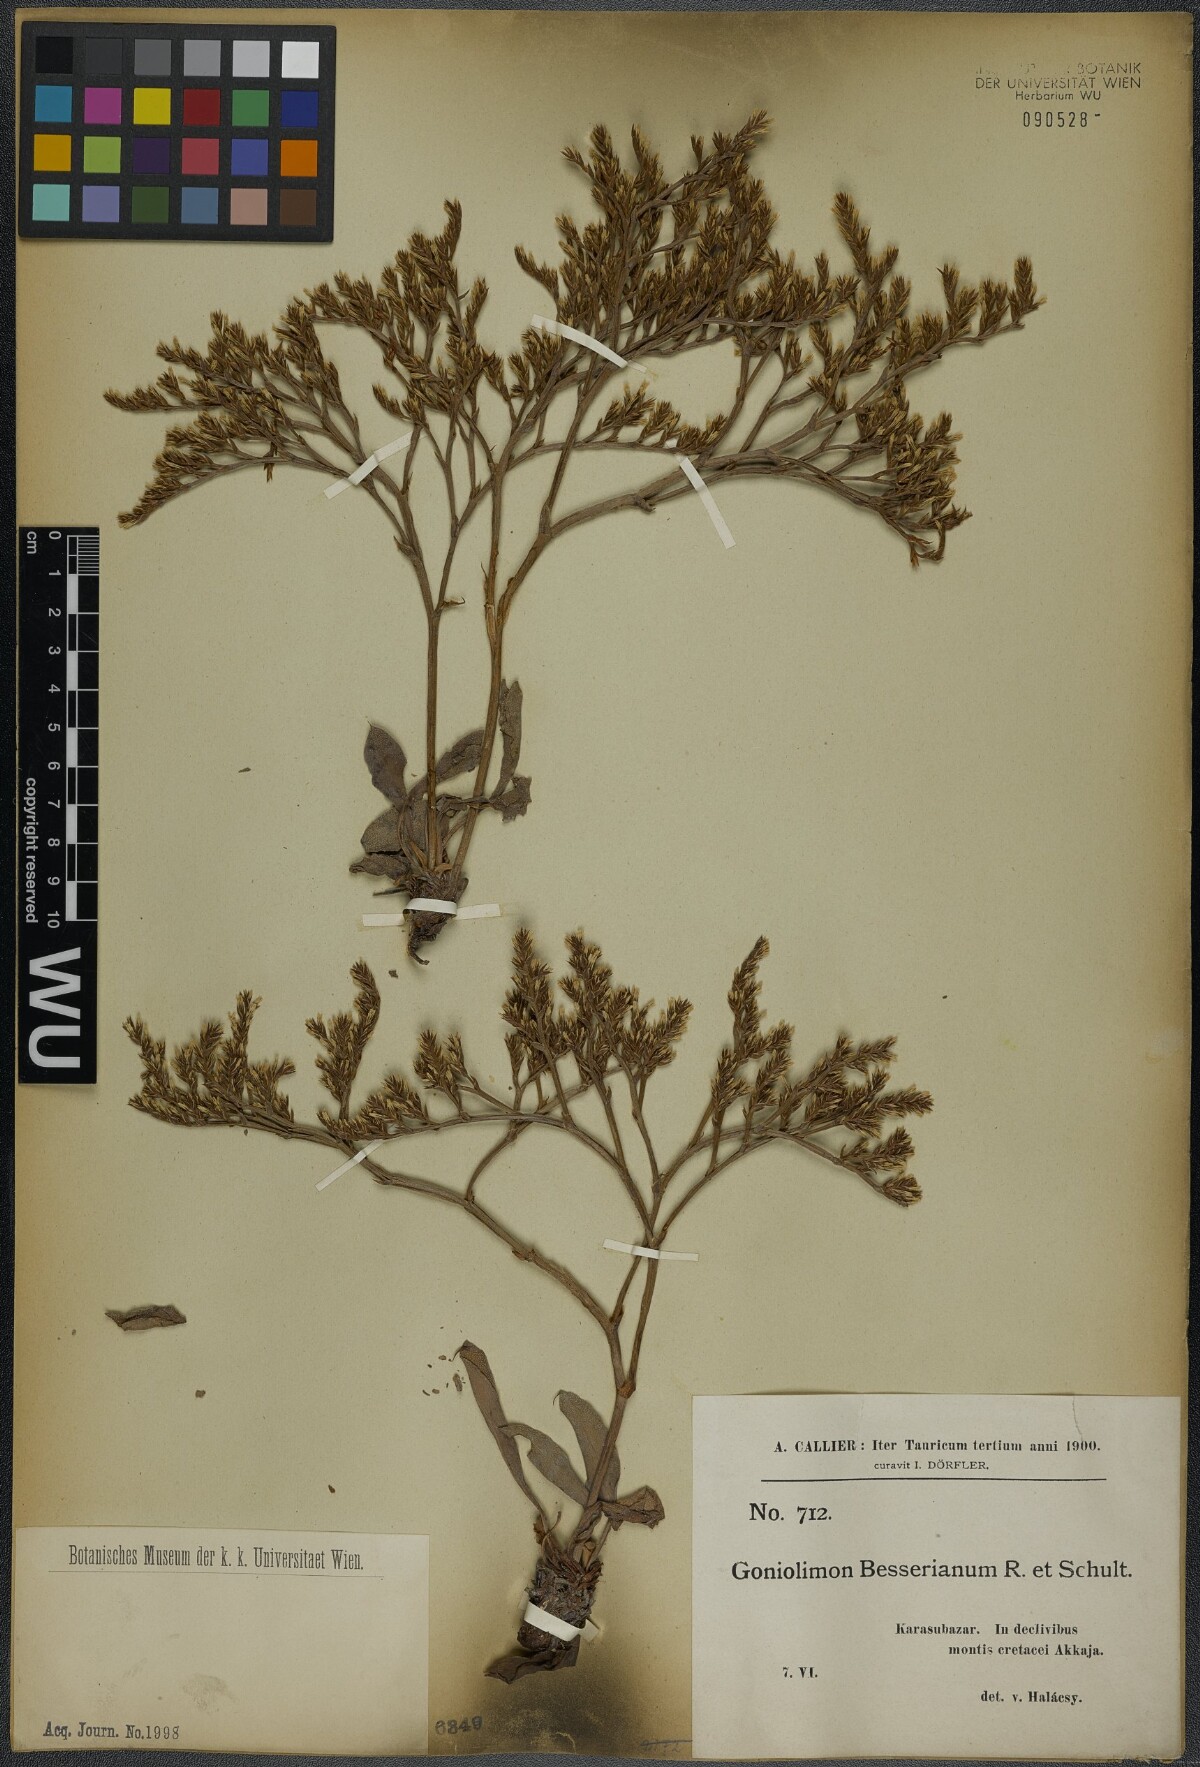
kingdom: Plantae
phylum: Tracheophyta
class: Magnoliopsida
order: Caryophyllales
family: Plumbaginaceae
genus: Goniolimon
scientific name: Goniolimon besserianum
